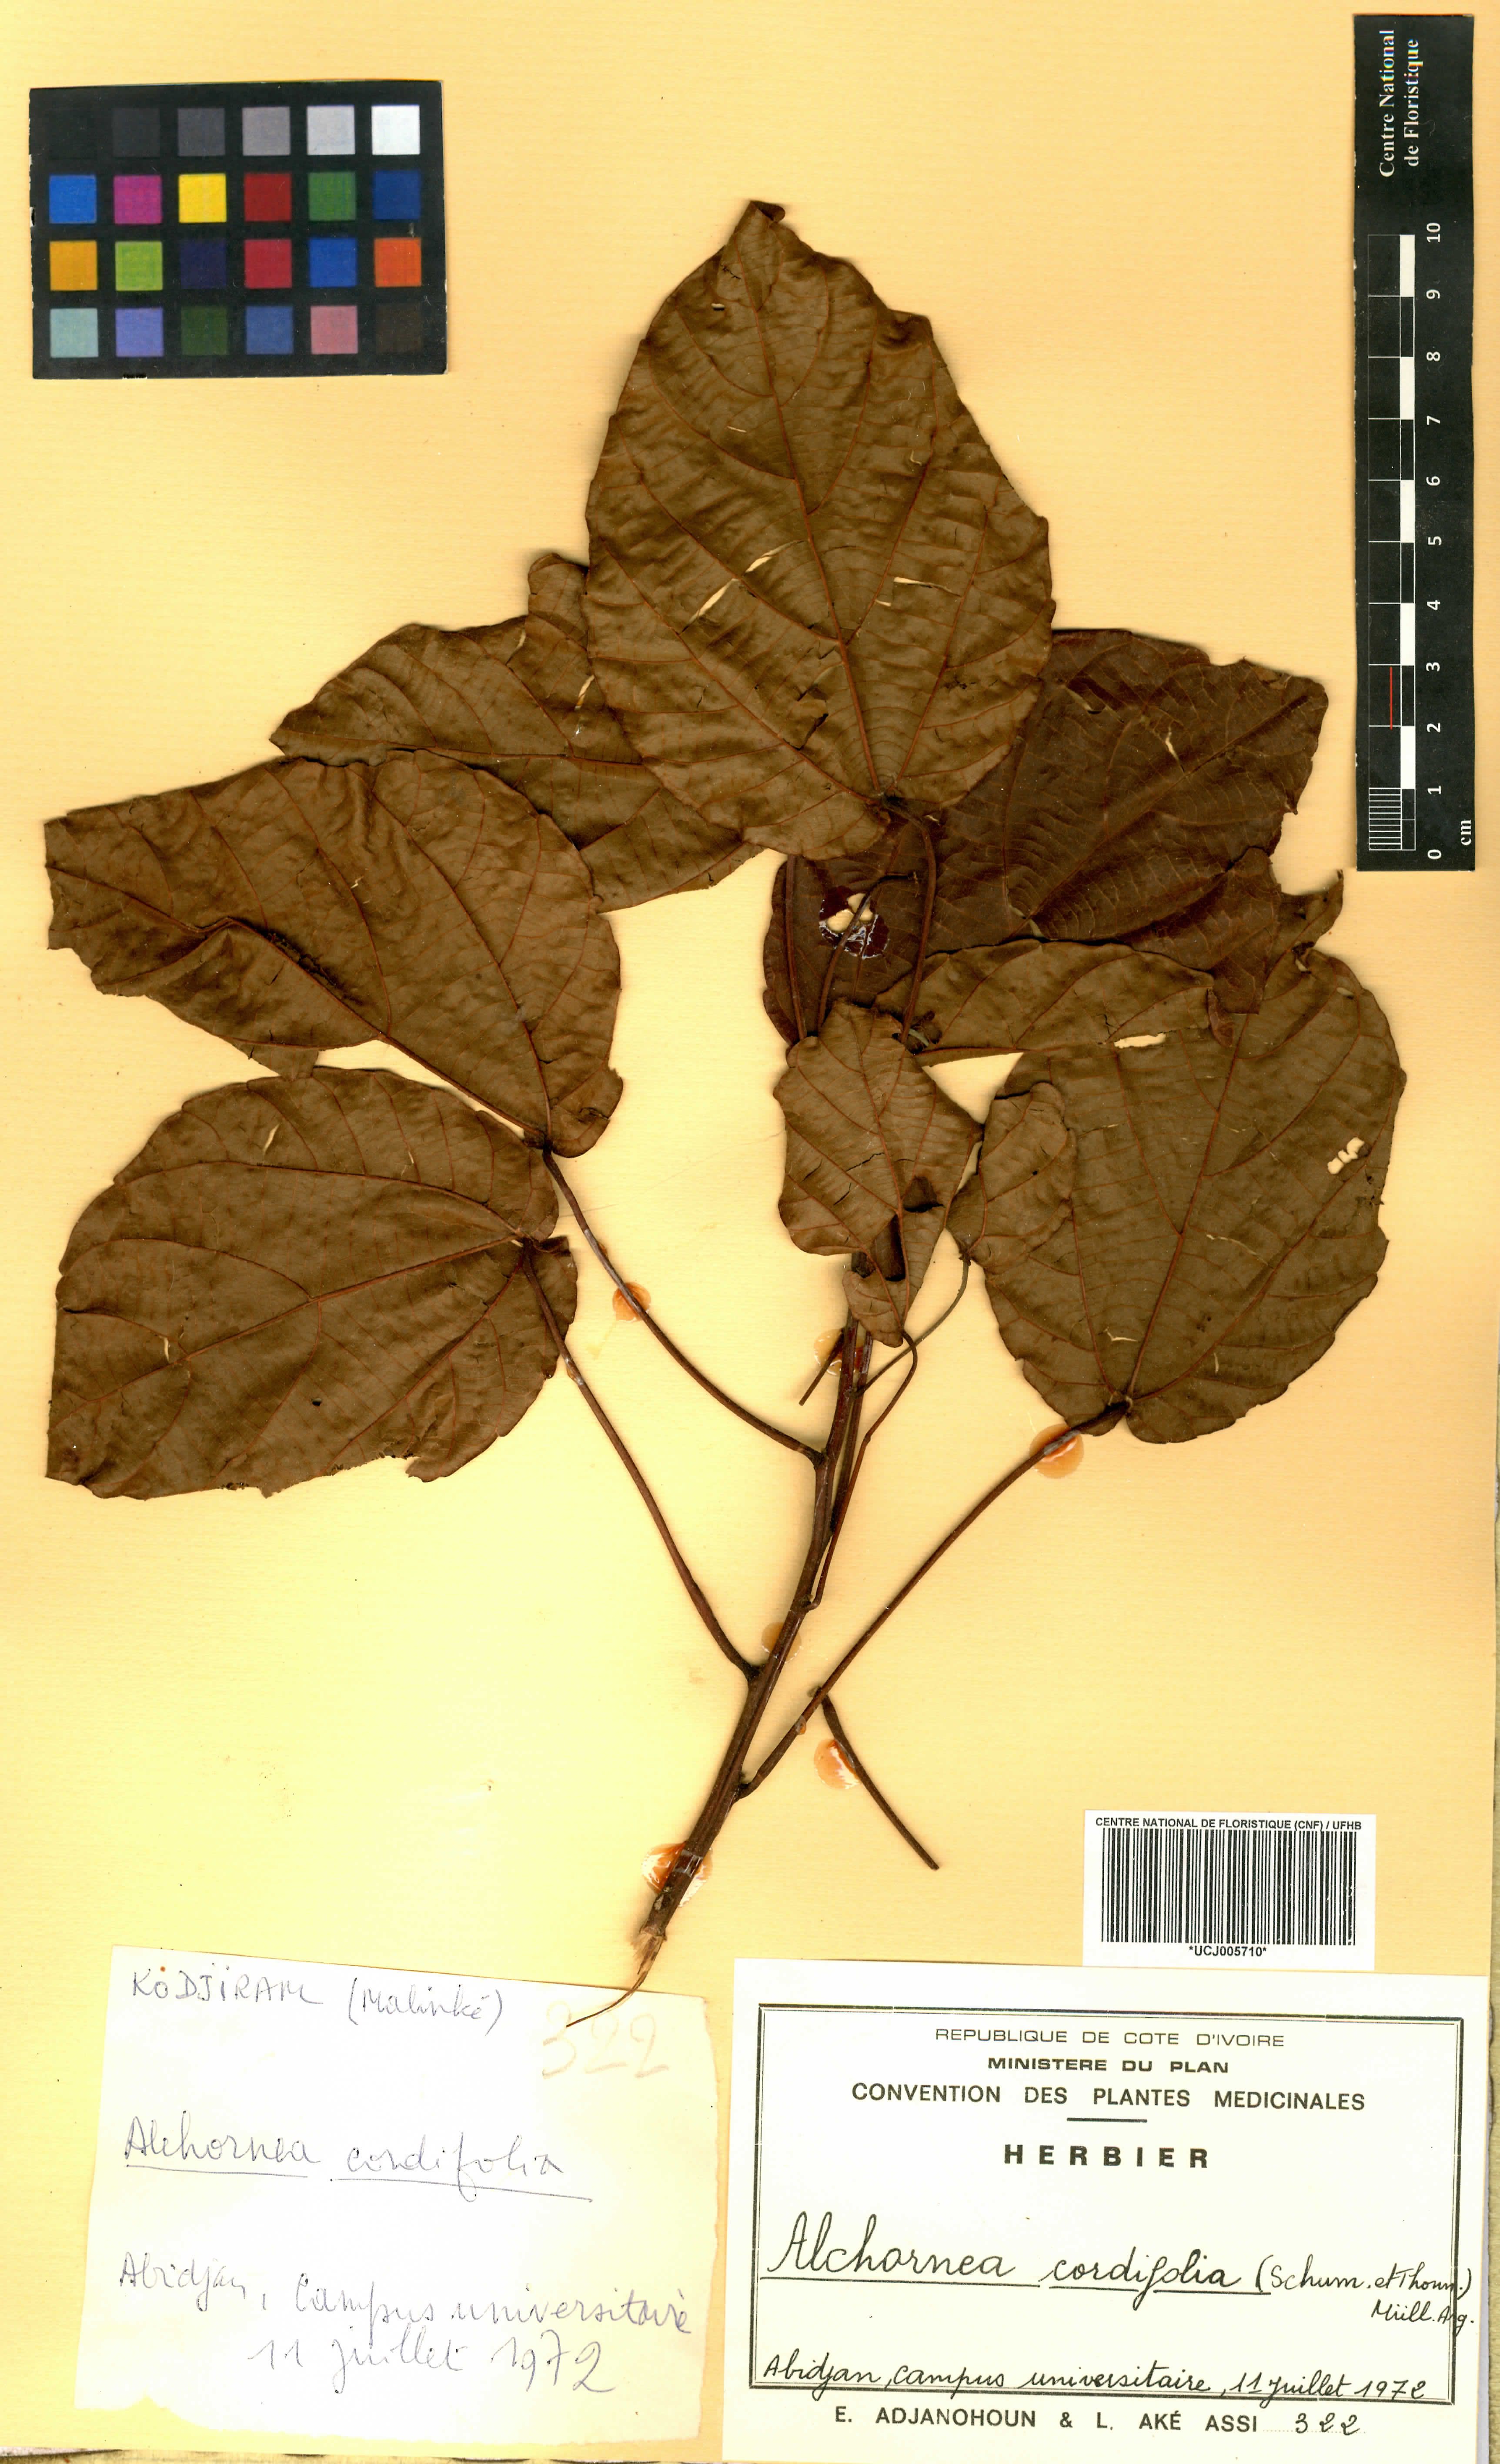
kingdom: Plantae
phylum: Tracheophyta
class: Magnoliopsida
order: Malpighiales
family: Euphorbiaceae
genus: Alchornea
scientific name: Alchornea cordifolia
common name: Christmasbush
